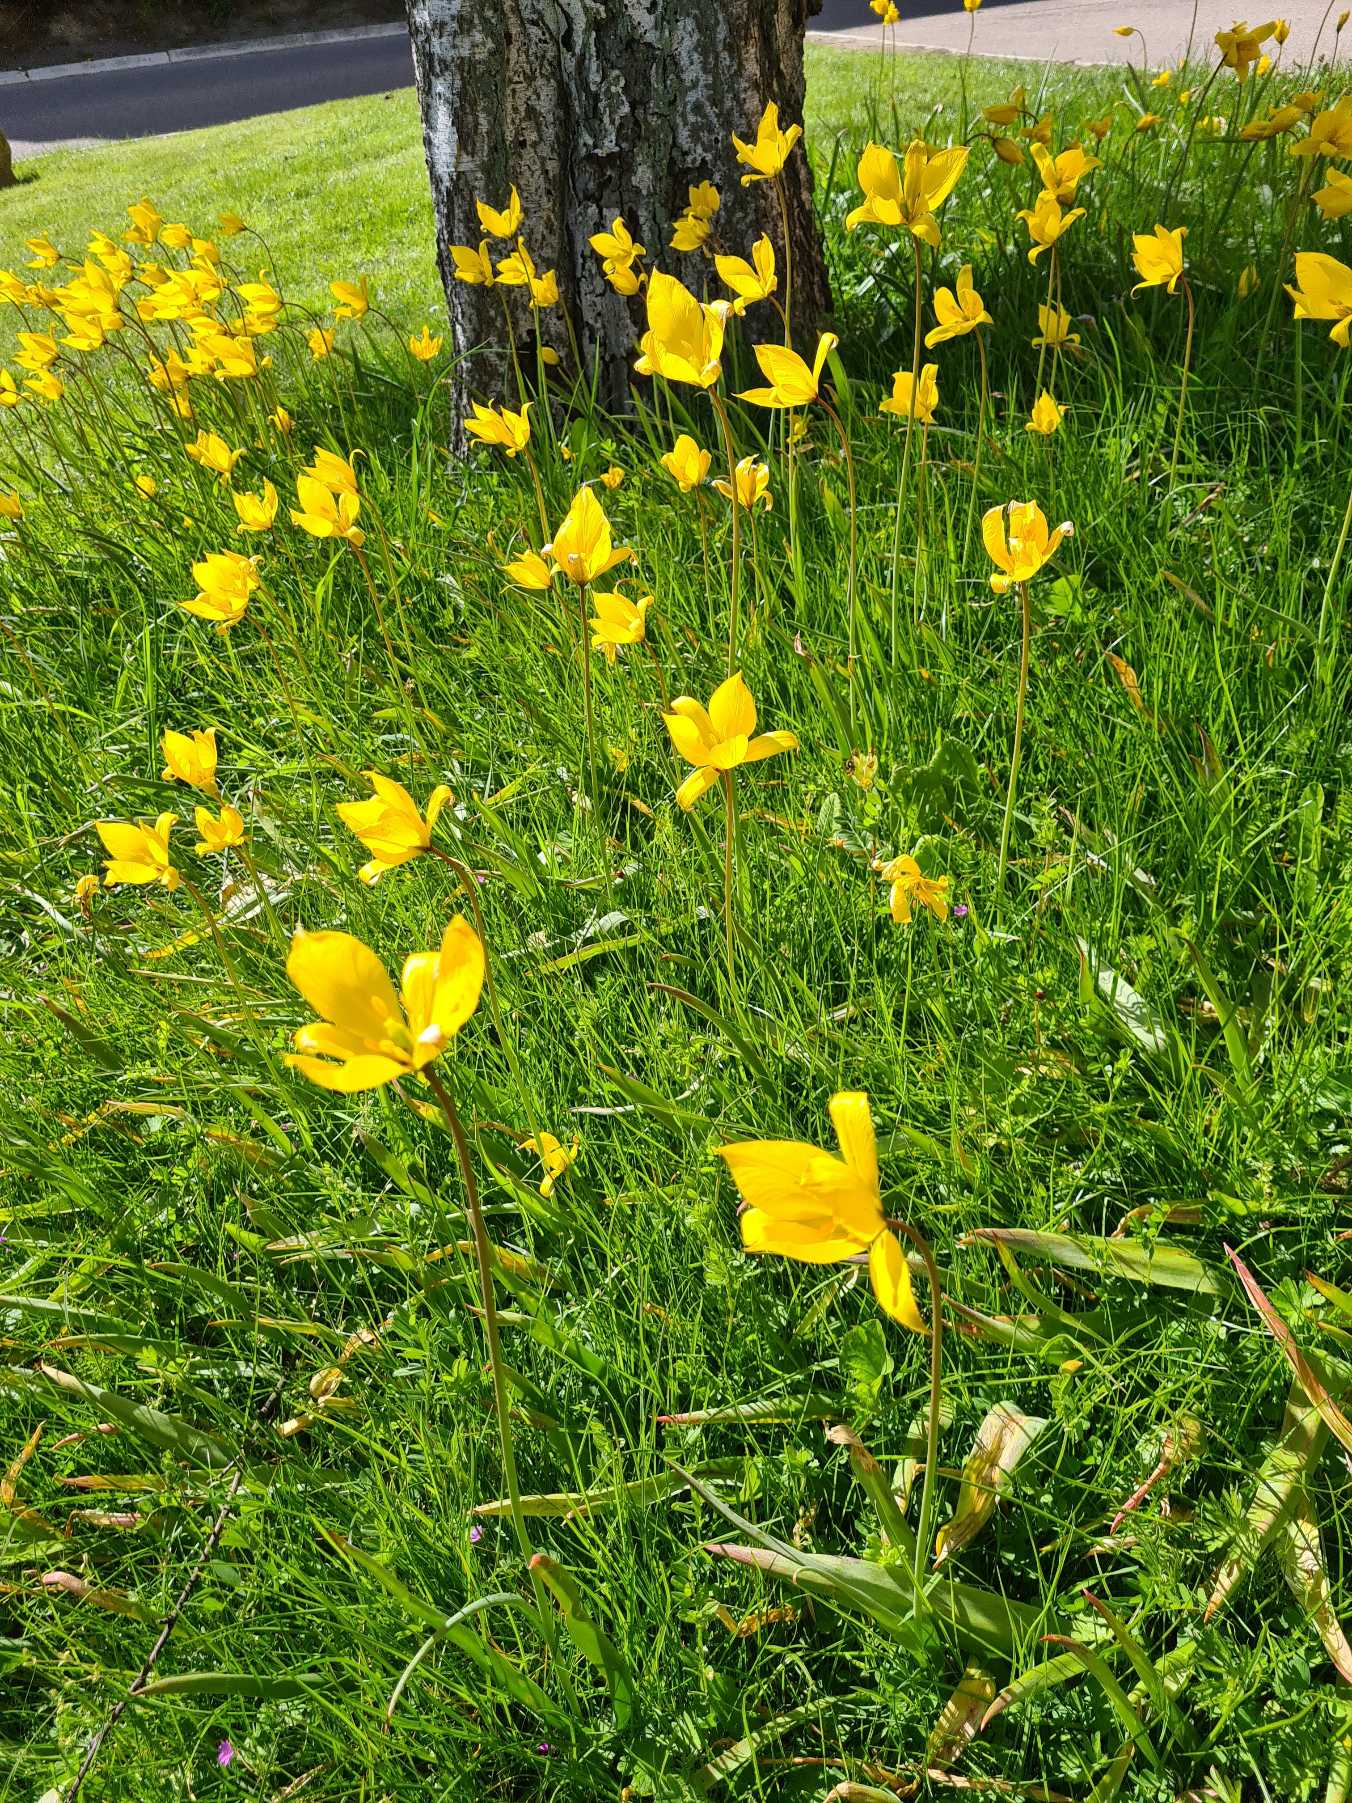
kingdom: Plantae
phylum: Tracheophyta
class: Liliopsida
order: Liliales
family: Liliaceae
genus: Tulipa
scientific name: Tulipa sylvestris
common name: Vild tulipan
